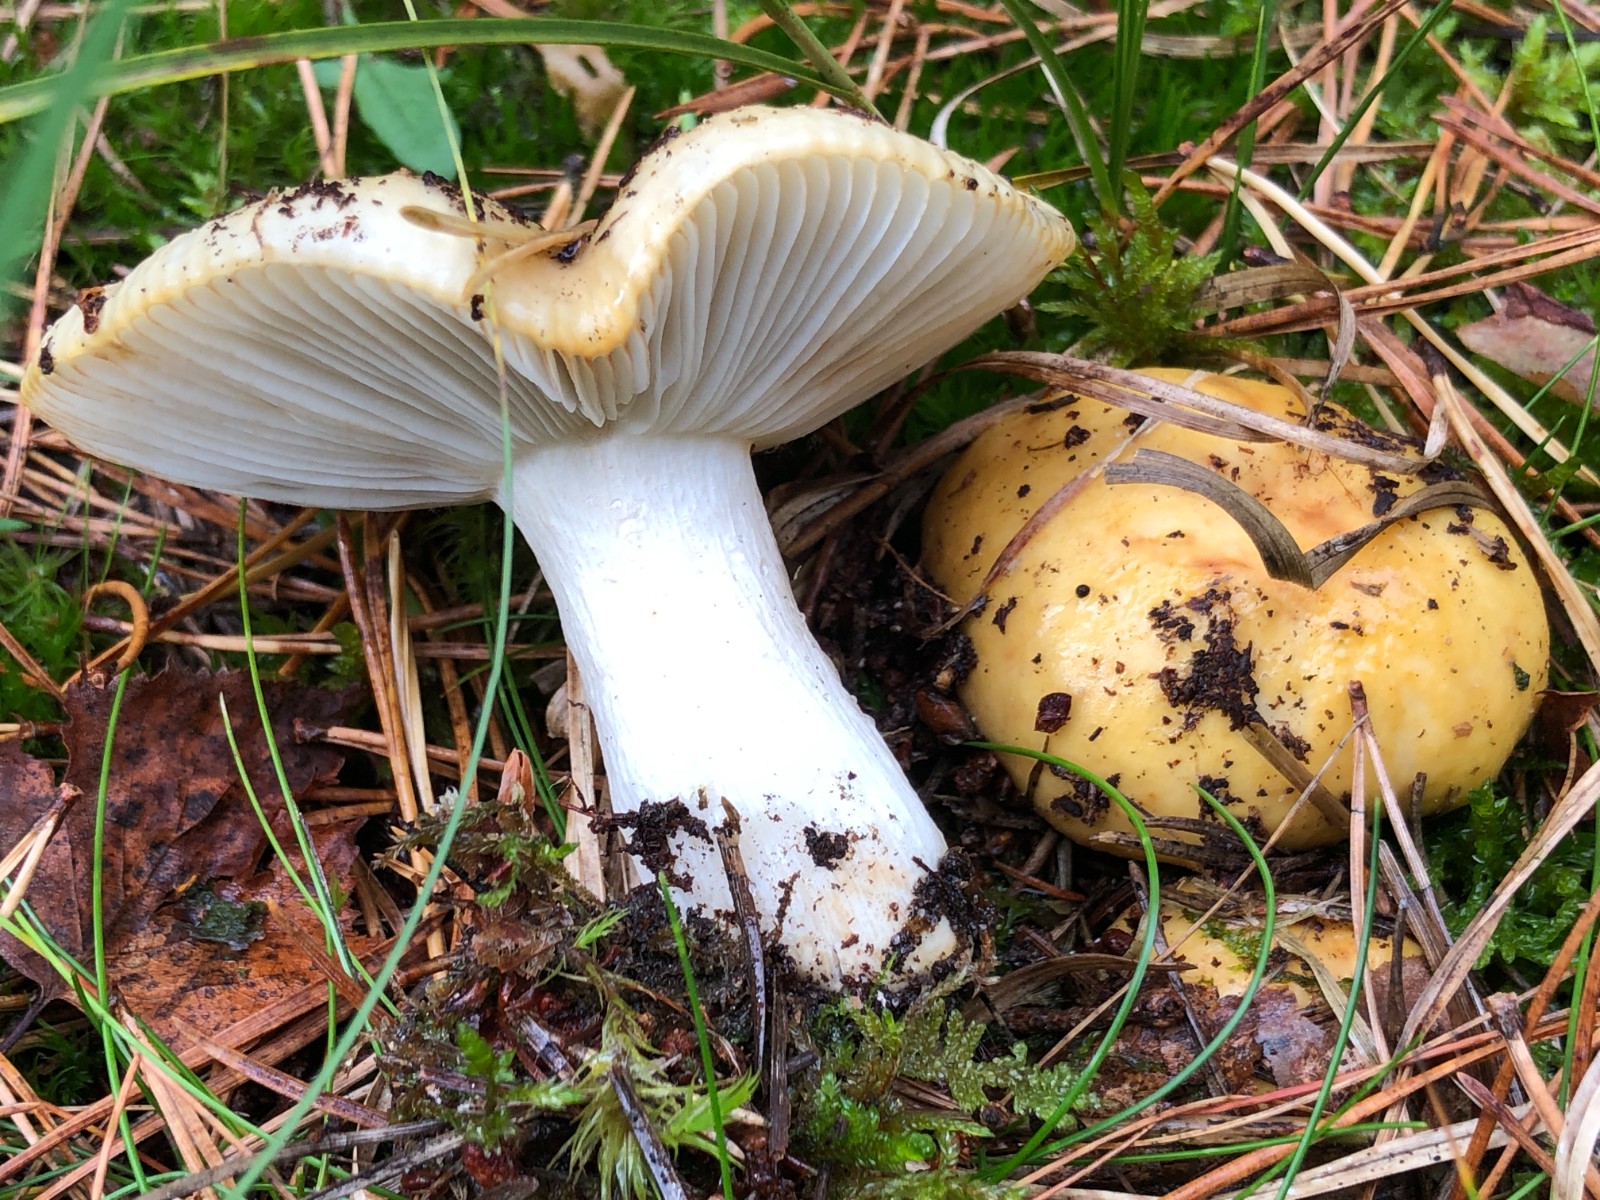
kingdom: Fungi
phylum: Basidiomycota
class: Agaricomycetes
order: Russulales
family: Russulaceae
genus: Russula
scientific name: Russula ochroleuca
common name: okkergul skørhat
